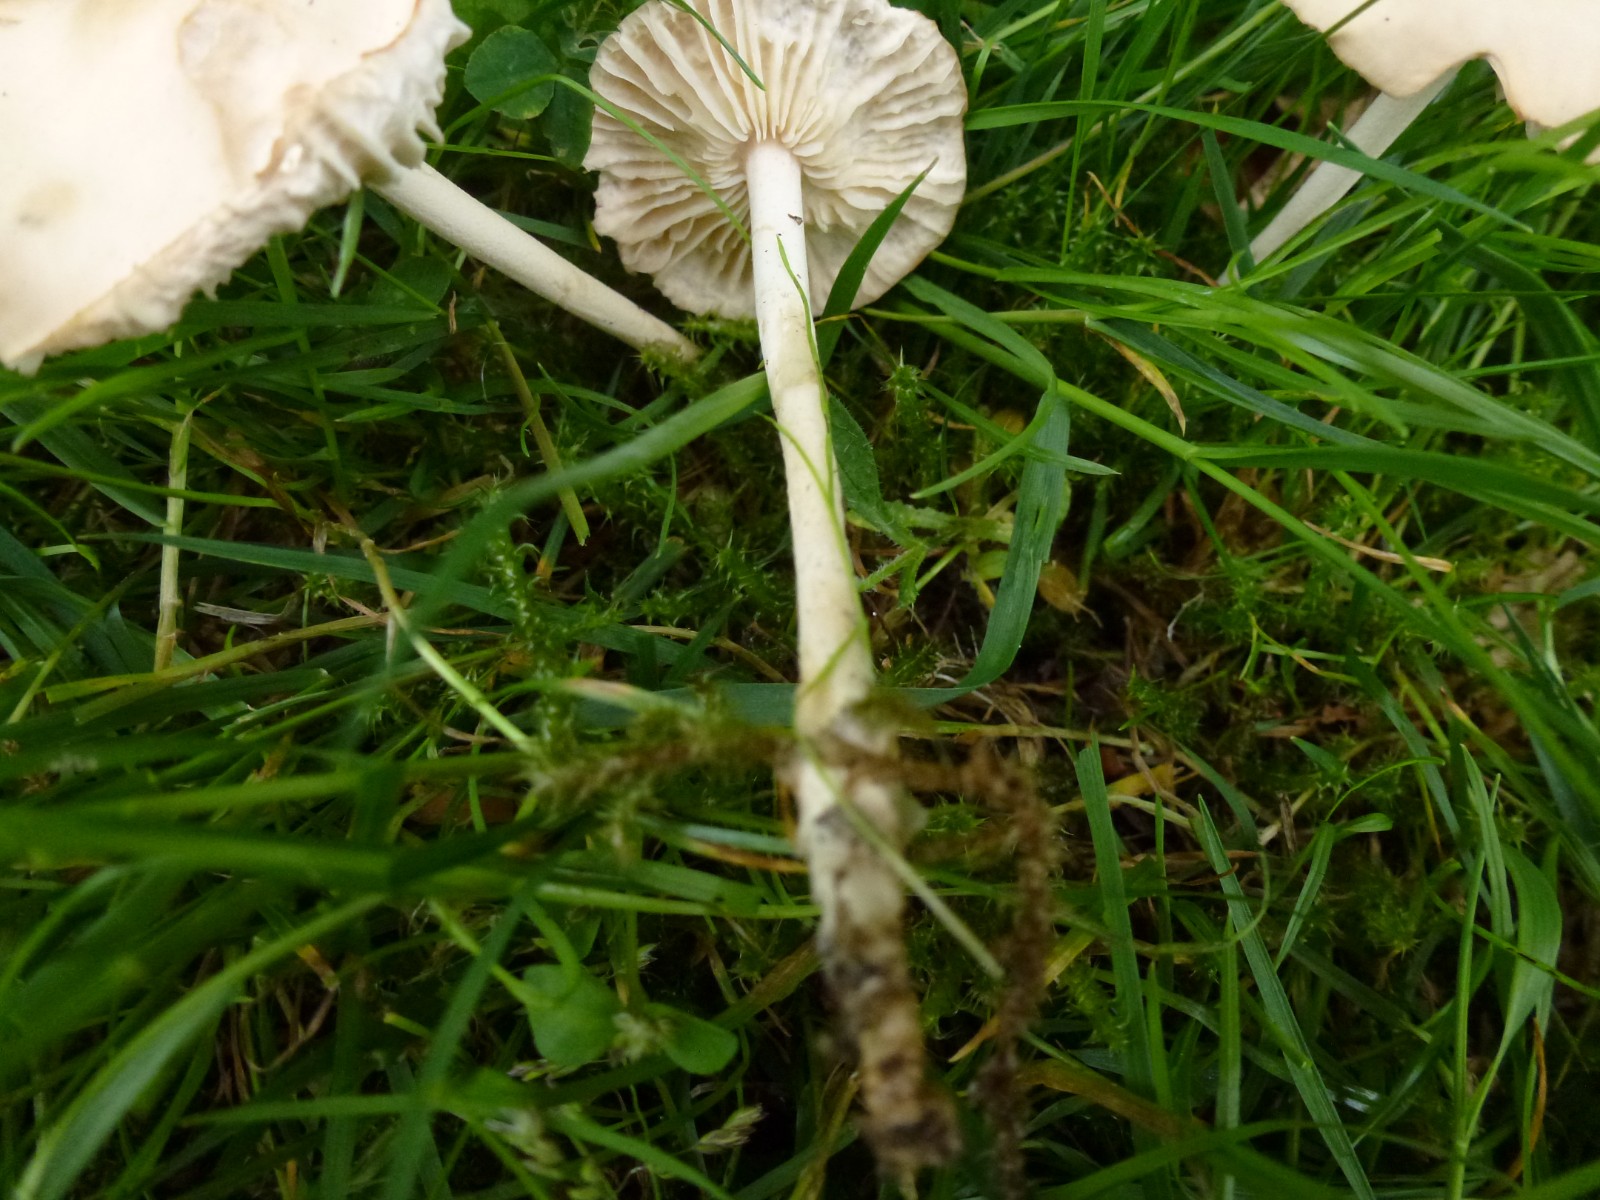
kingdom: Fungi
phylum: Basidiomycota
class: Agaricomycetes
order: Agaricales
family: Marasmiaceae
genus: Marasmius
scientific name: Marasmius oreades
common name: elledans-bruskhat
